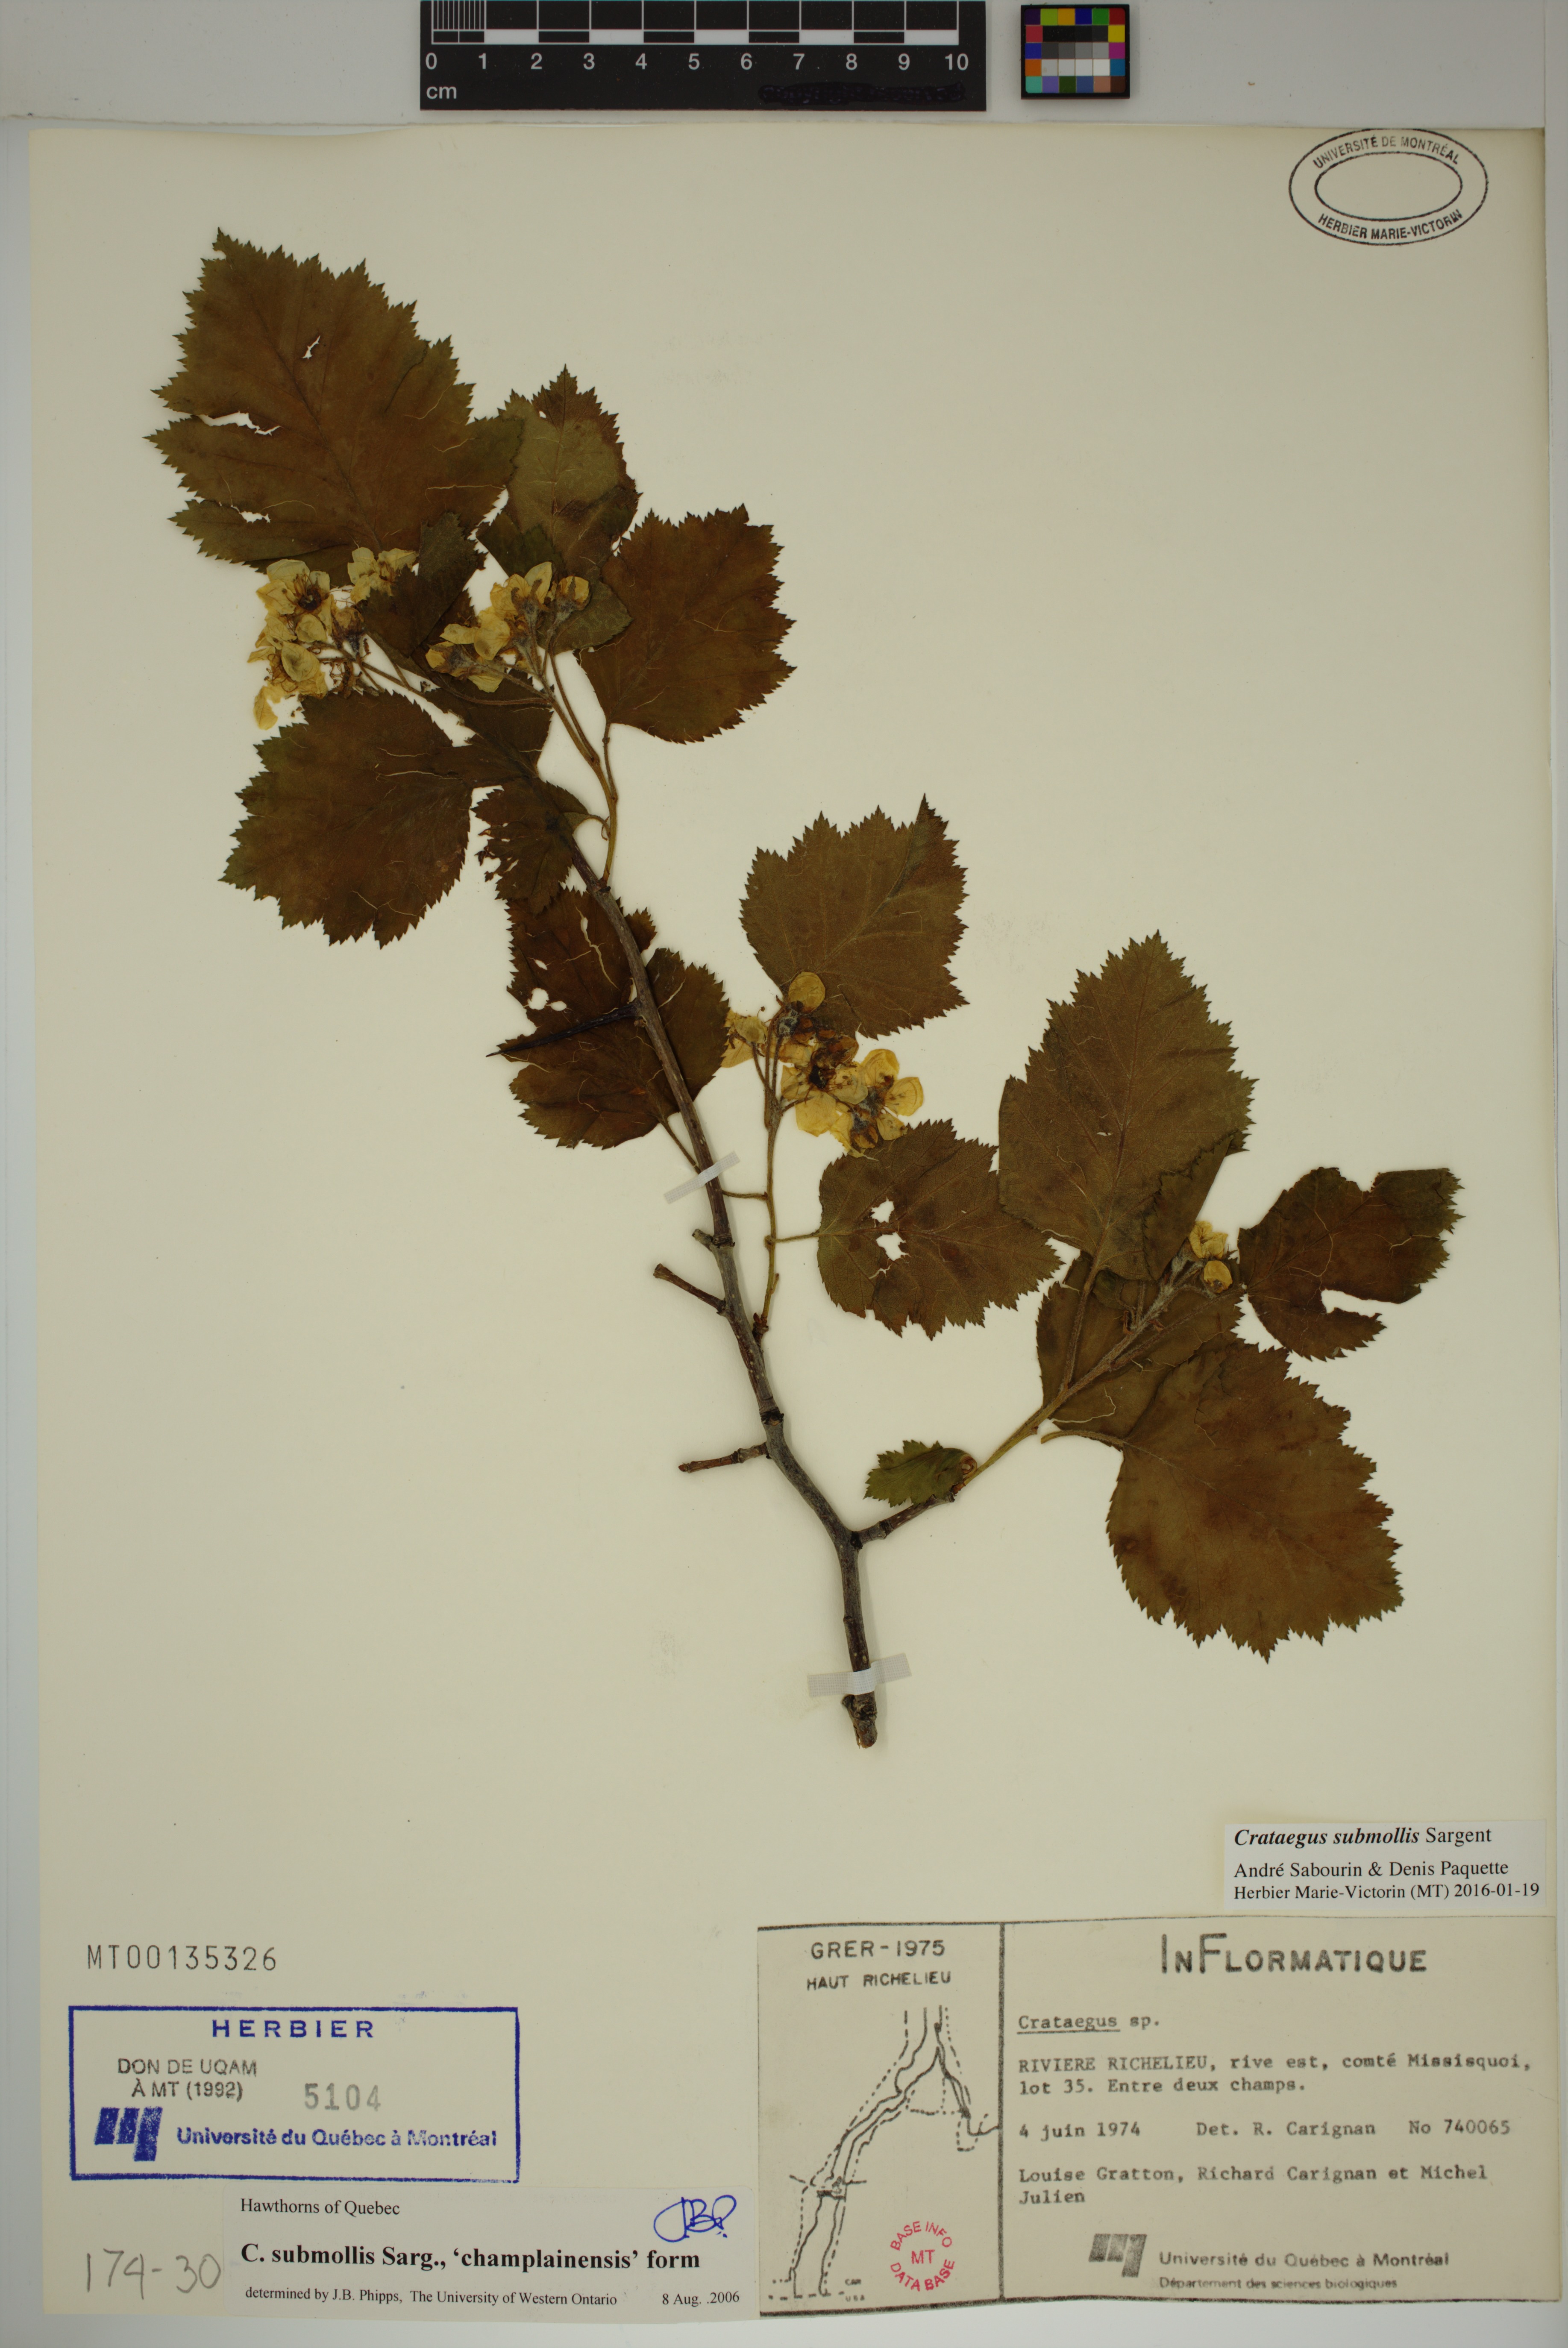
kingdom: Plantae
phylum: Tracheophyta
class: Magnoliopsida
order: Rosales
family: Rosaceae
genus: Crataegus
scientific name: Crataegus submollis
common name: Hairy cockspurthorn
